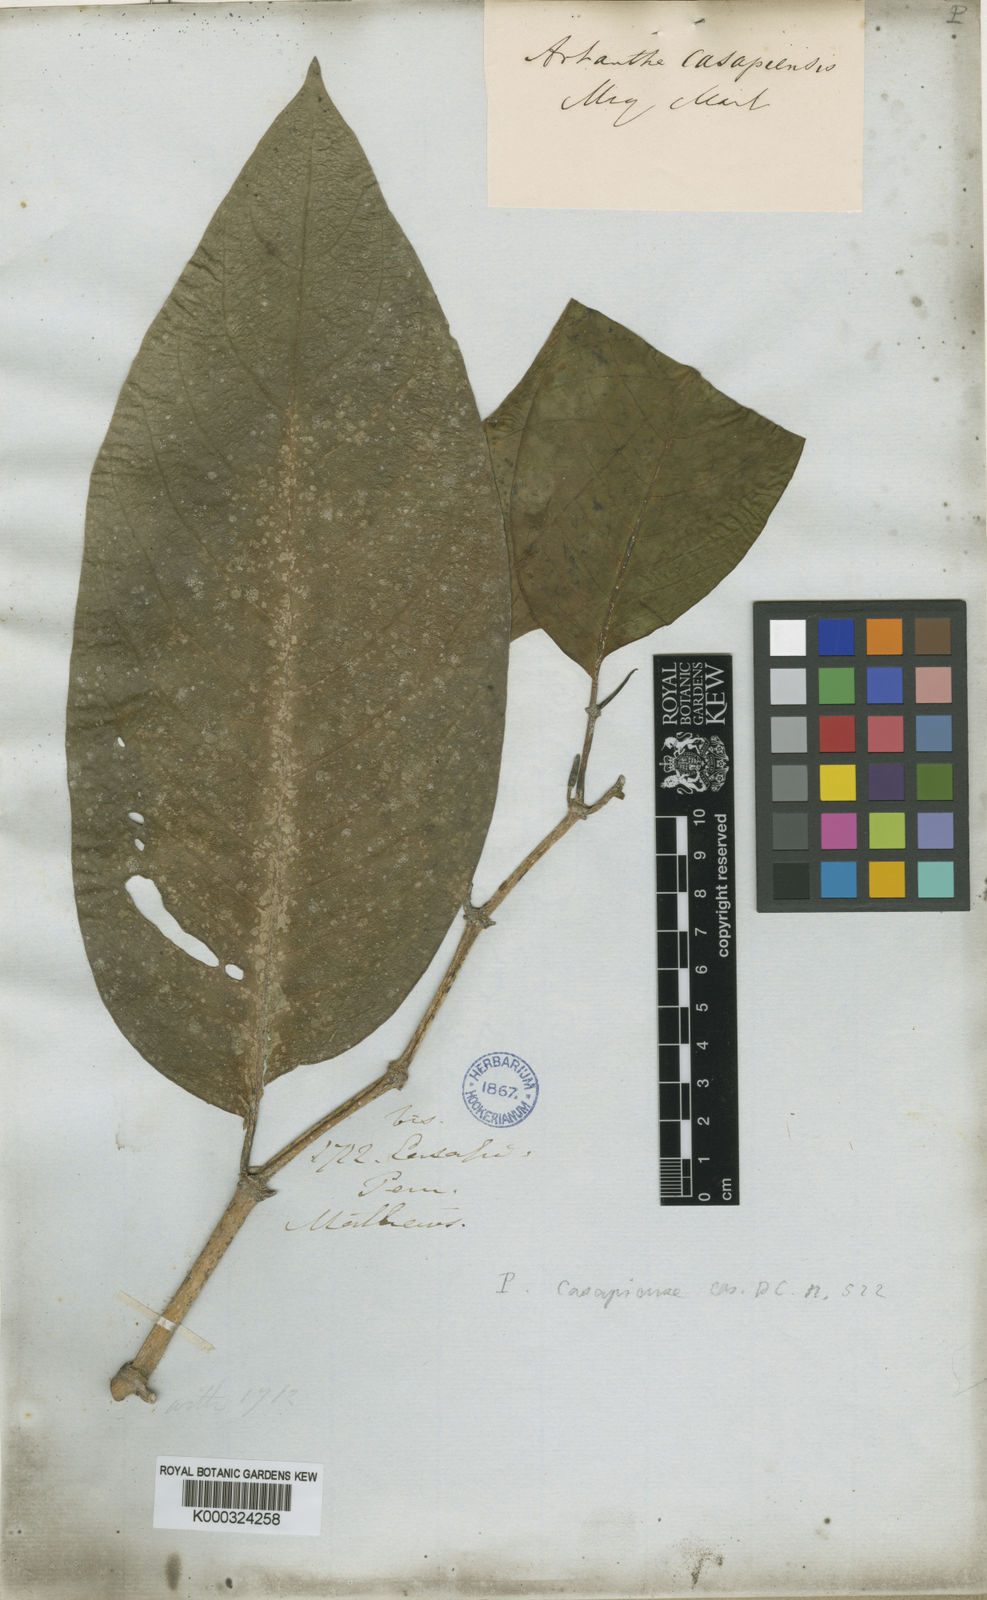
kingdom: Plantae
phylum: Tracheophyta
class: Magnoliopsida
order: Piperales
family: Piperaceae
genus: Piper
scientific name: Piper casapiense
